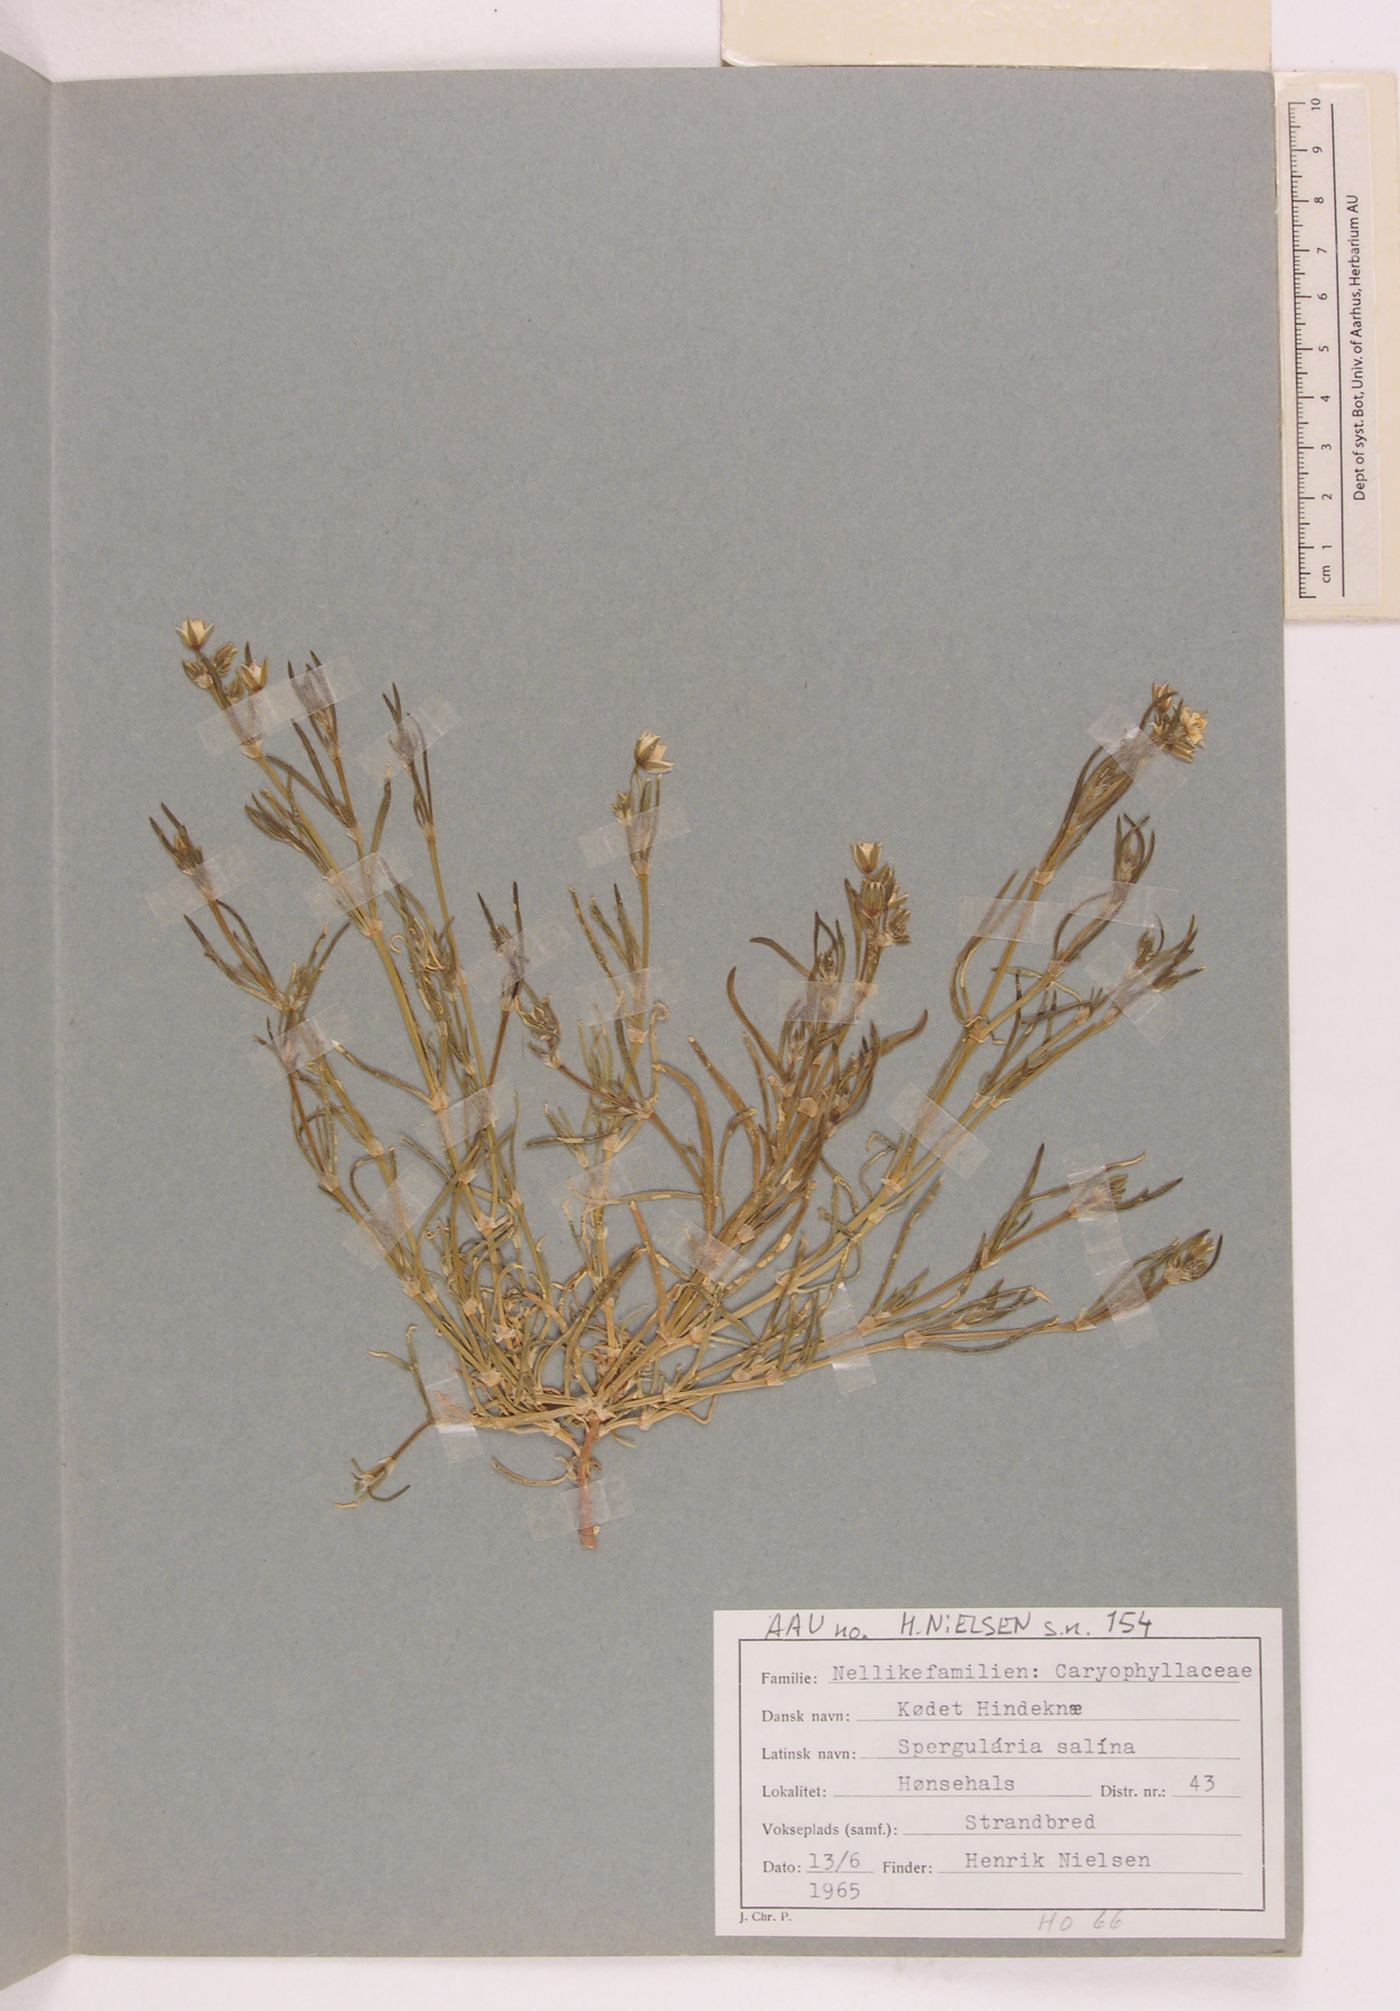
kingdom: Plantae
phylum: Tracheophyta
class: Magnoliopsida
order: Caryophyllales
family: Caryophyllaceae
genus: Spergularia
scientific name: Spergularia marina
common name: Lesser sea-spurrey
